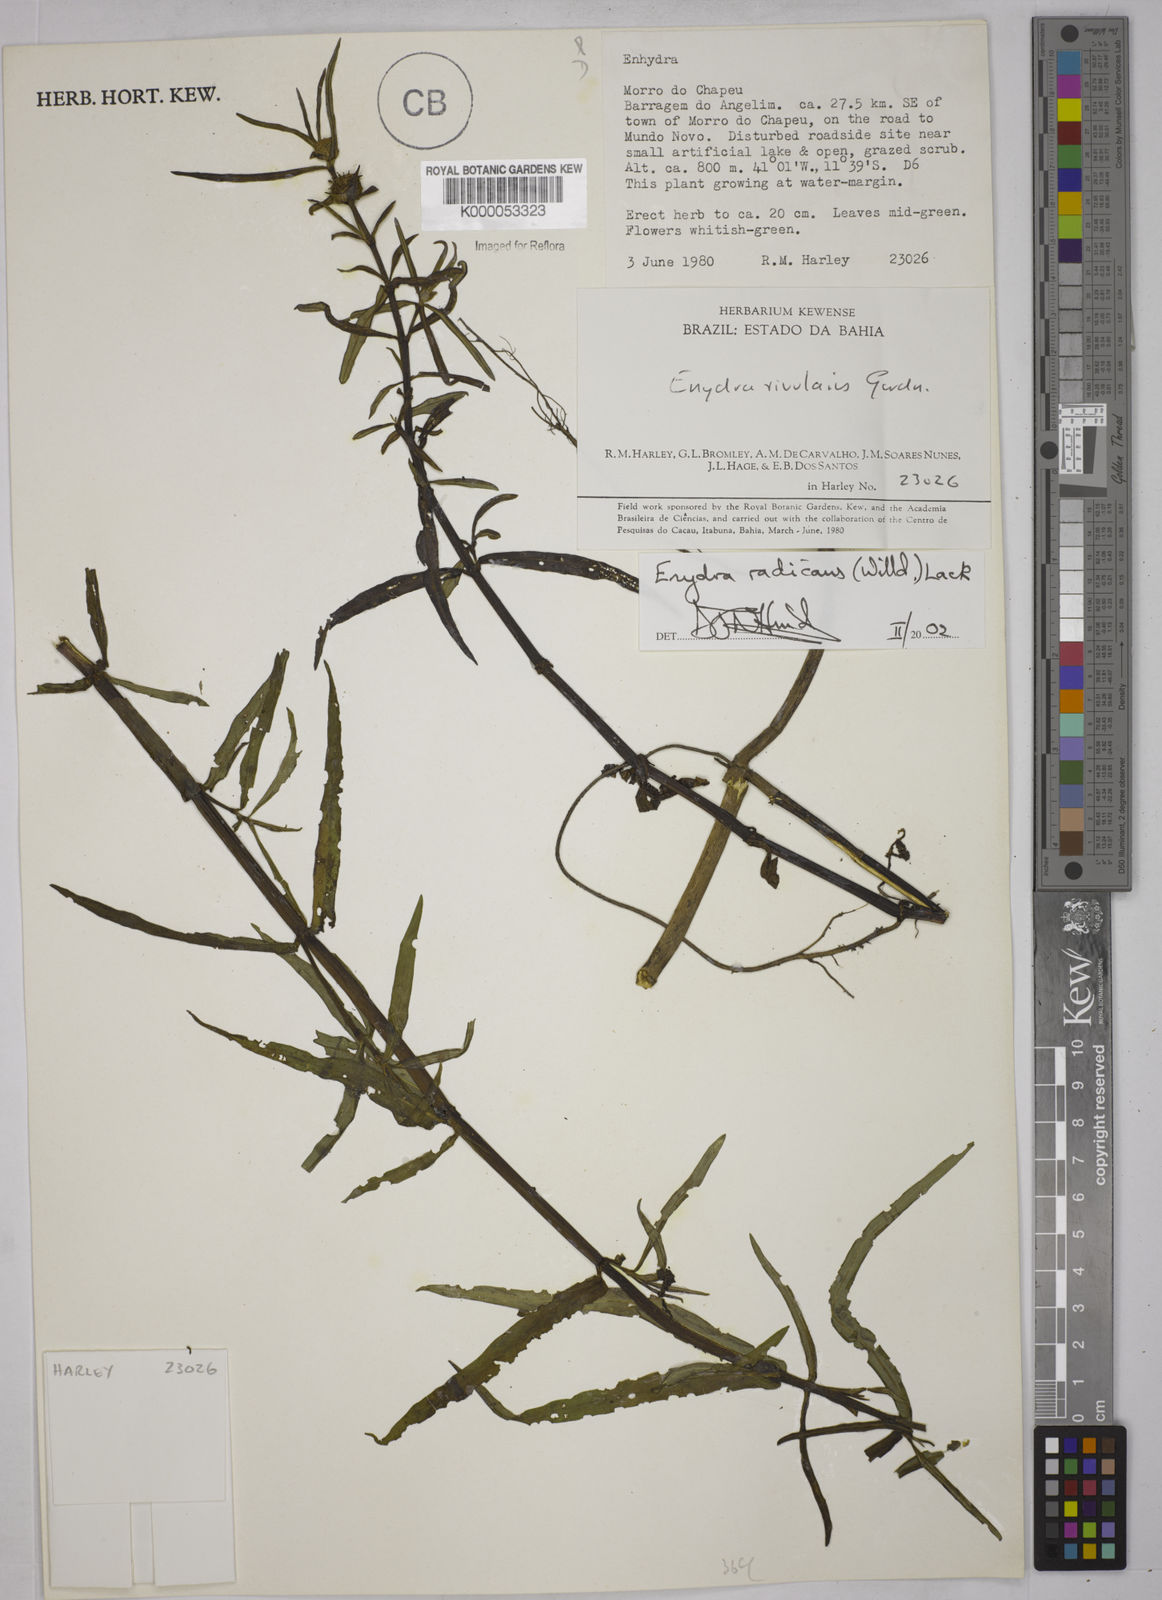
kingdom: Plantae
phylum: Tracheophyta
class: Magnoliopsida
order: Asterales
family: Asteraceae
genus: Enydra
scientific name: Enydra radicans
